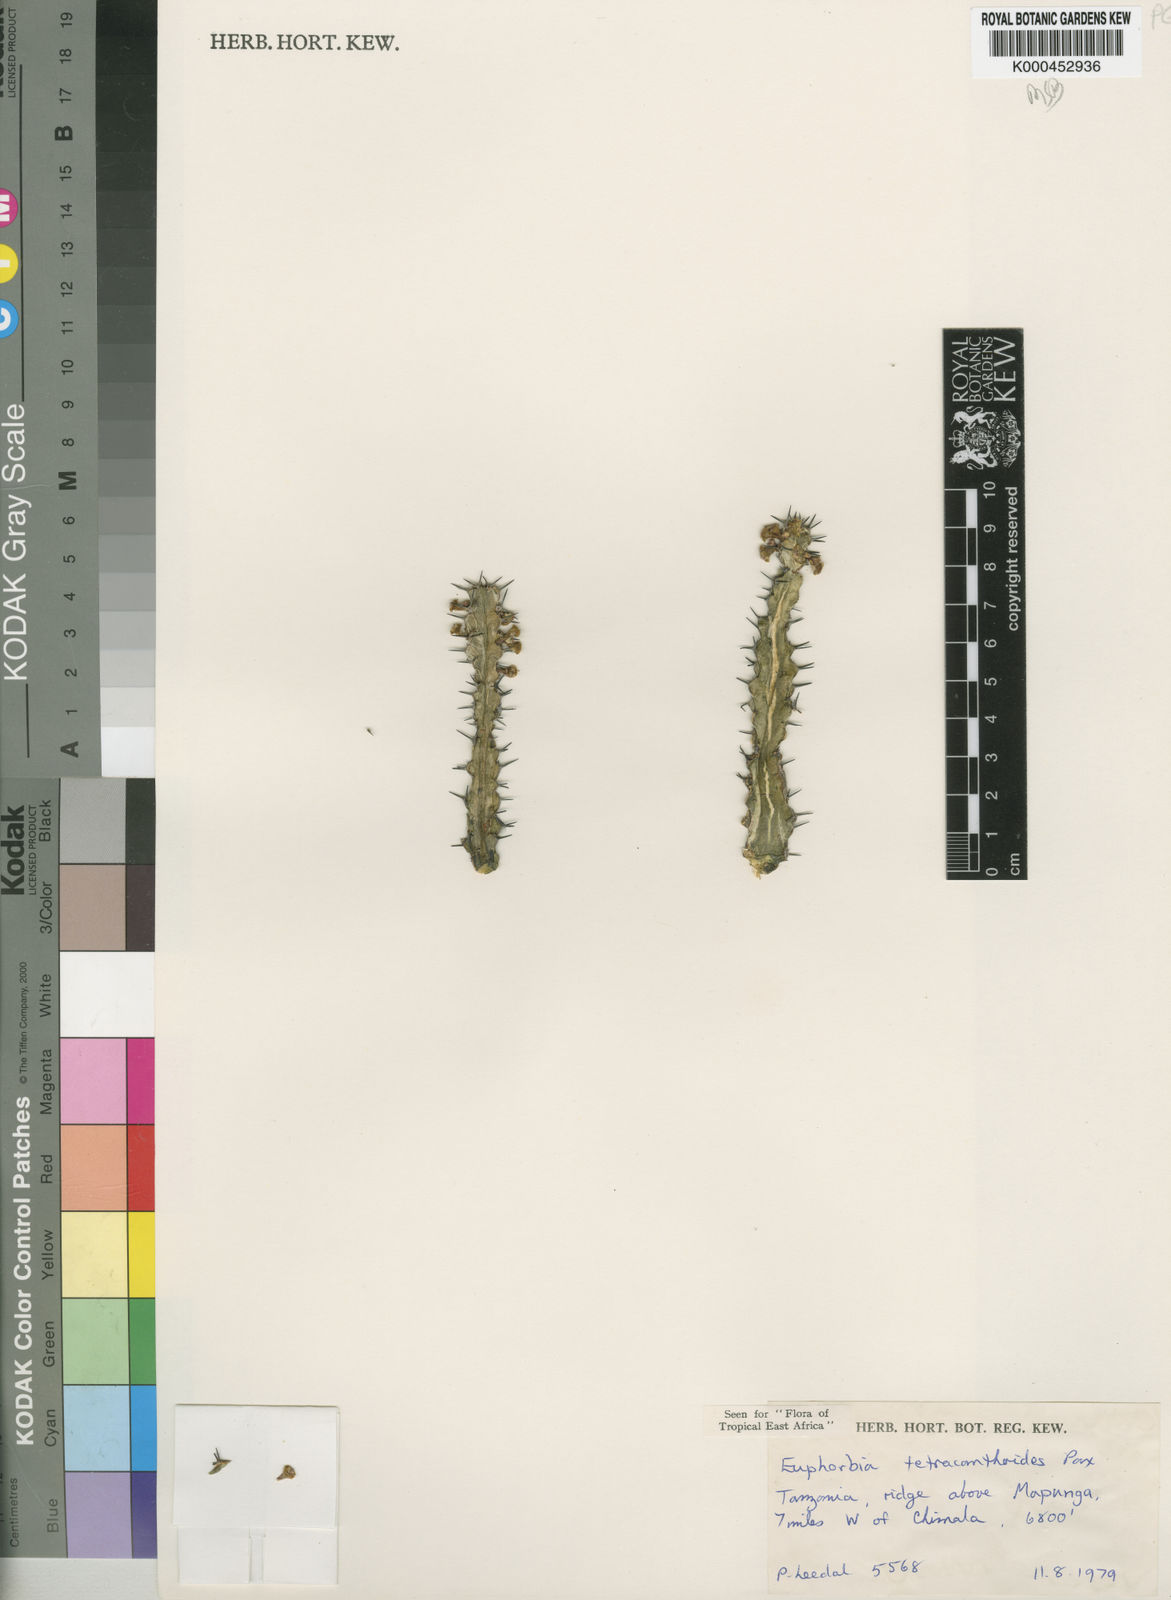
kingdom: Plantae
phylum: Tracheophyta
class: Magnoliopsida
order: Malpighiales
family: Euphorbiaceae
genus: Euphorbia
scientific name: Euphorbia tetracanthoides
